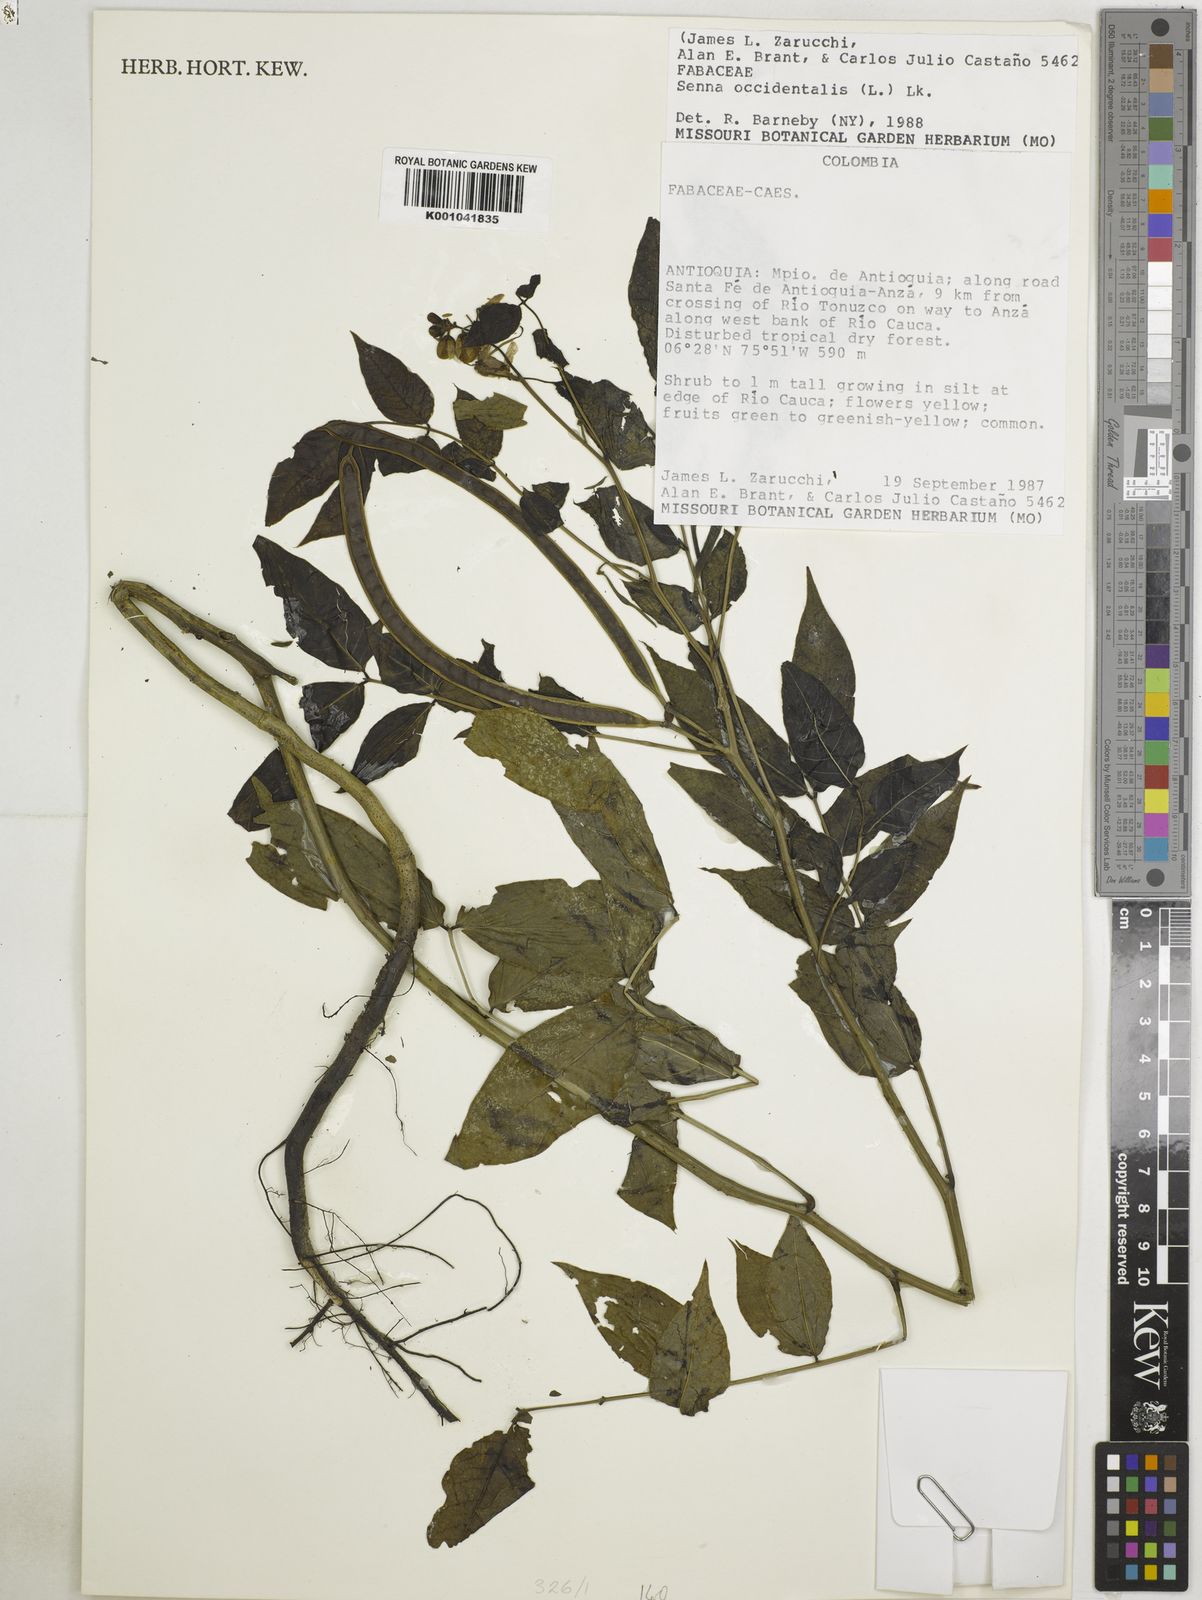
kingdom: Plantae
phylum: Tracheophyta
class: Magnoliopsida
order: Fabales
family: Fabaceae
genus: Senna
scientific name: Senna occidentalis
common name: Septicweed
